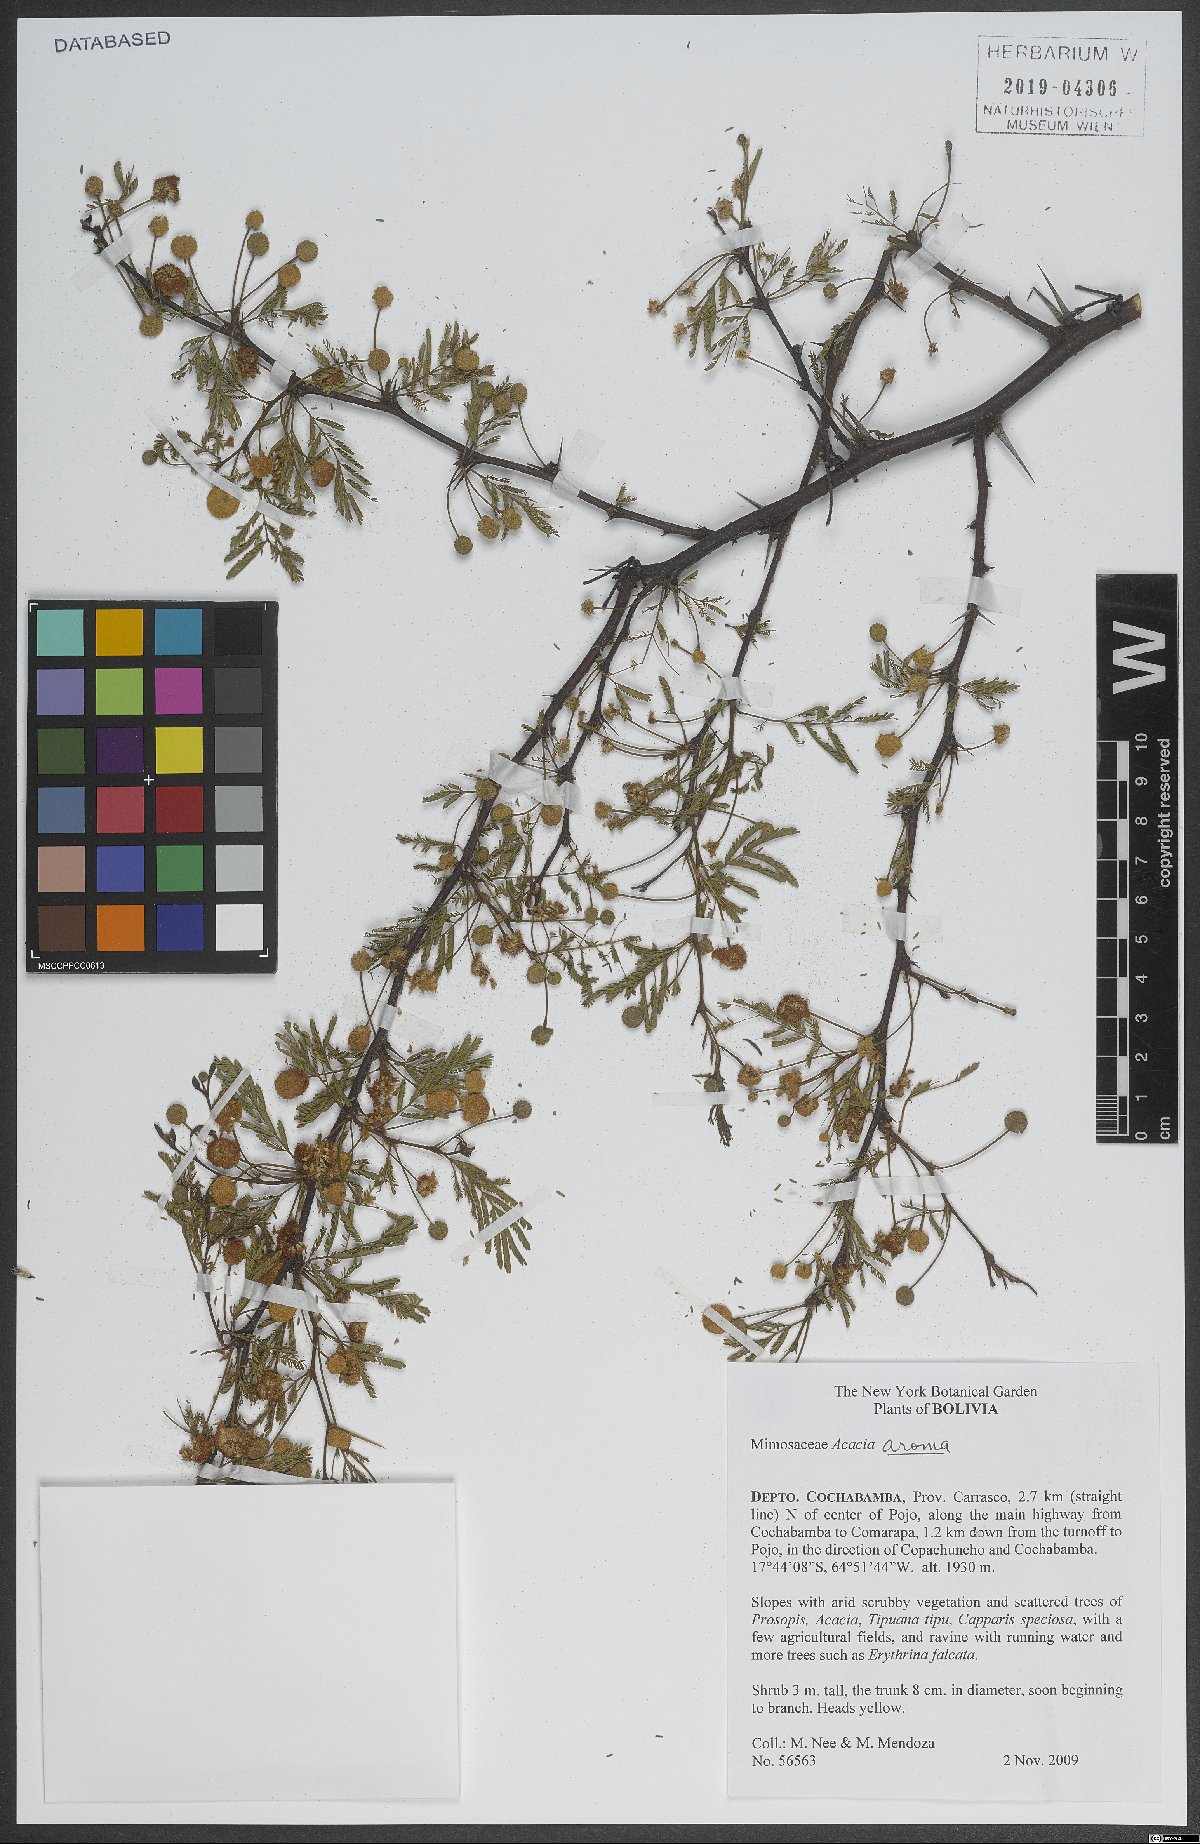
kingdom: Plantae
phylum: Tracheophyta
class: Magnoliopsida
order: Fabales
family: Fabaceae
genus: Vachellia
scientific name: Vachellia aroma
